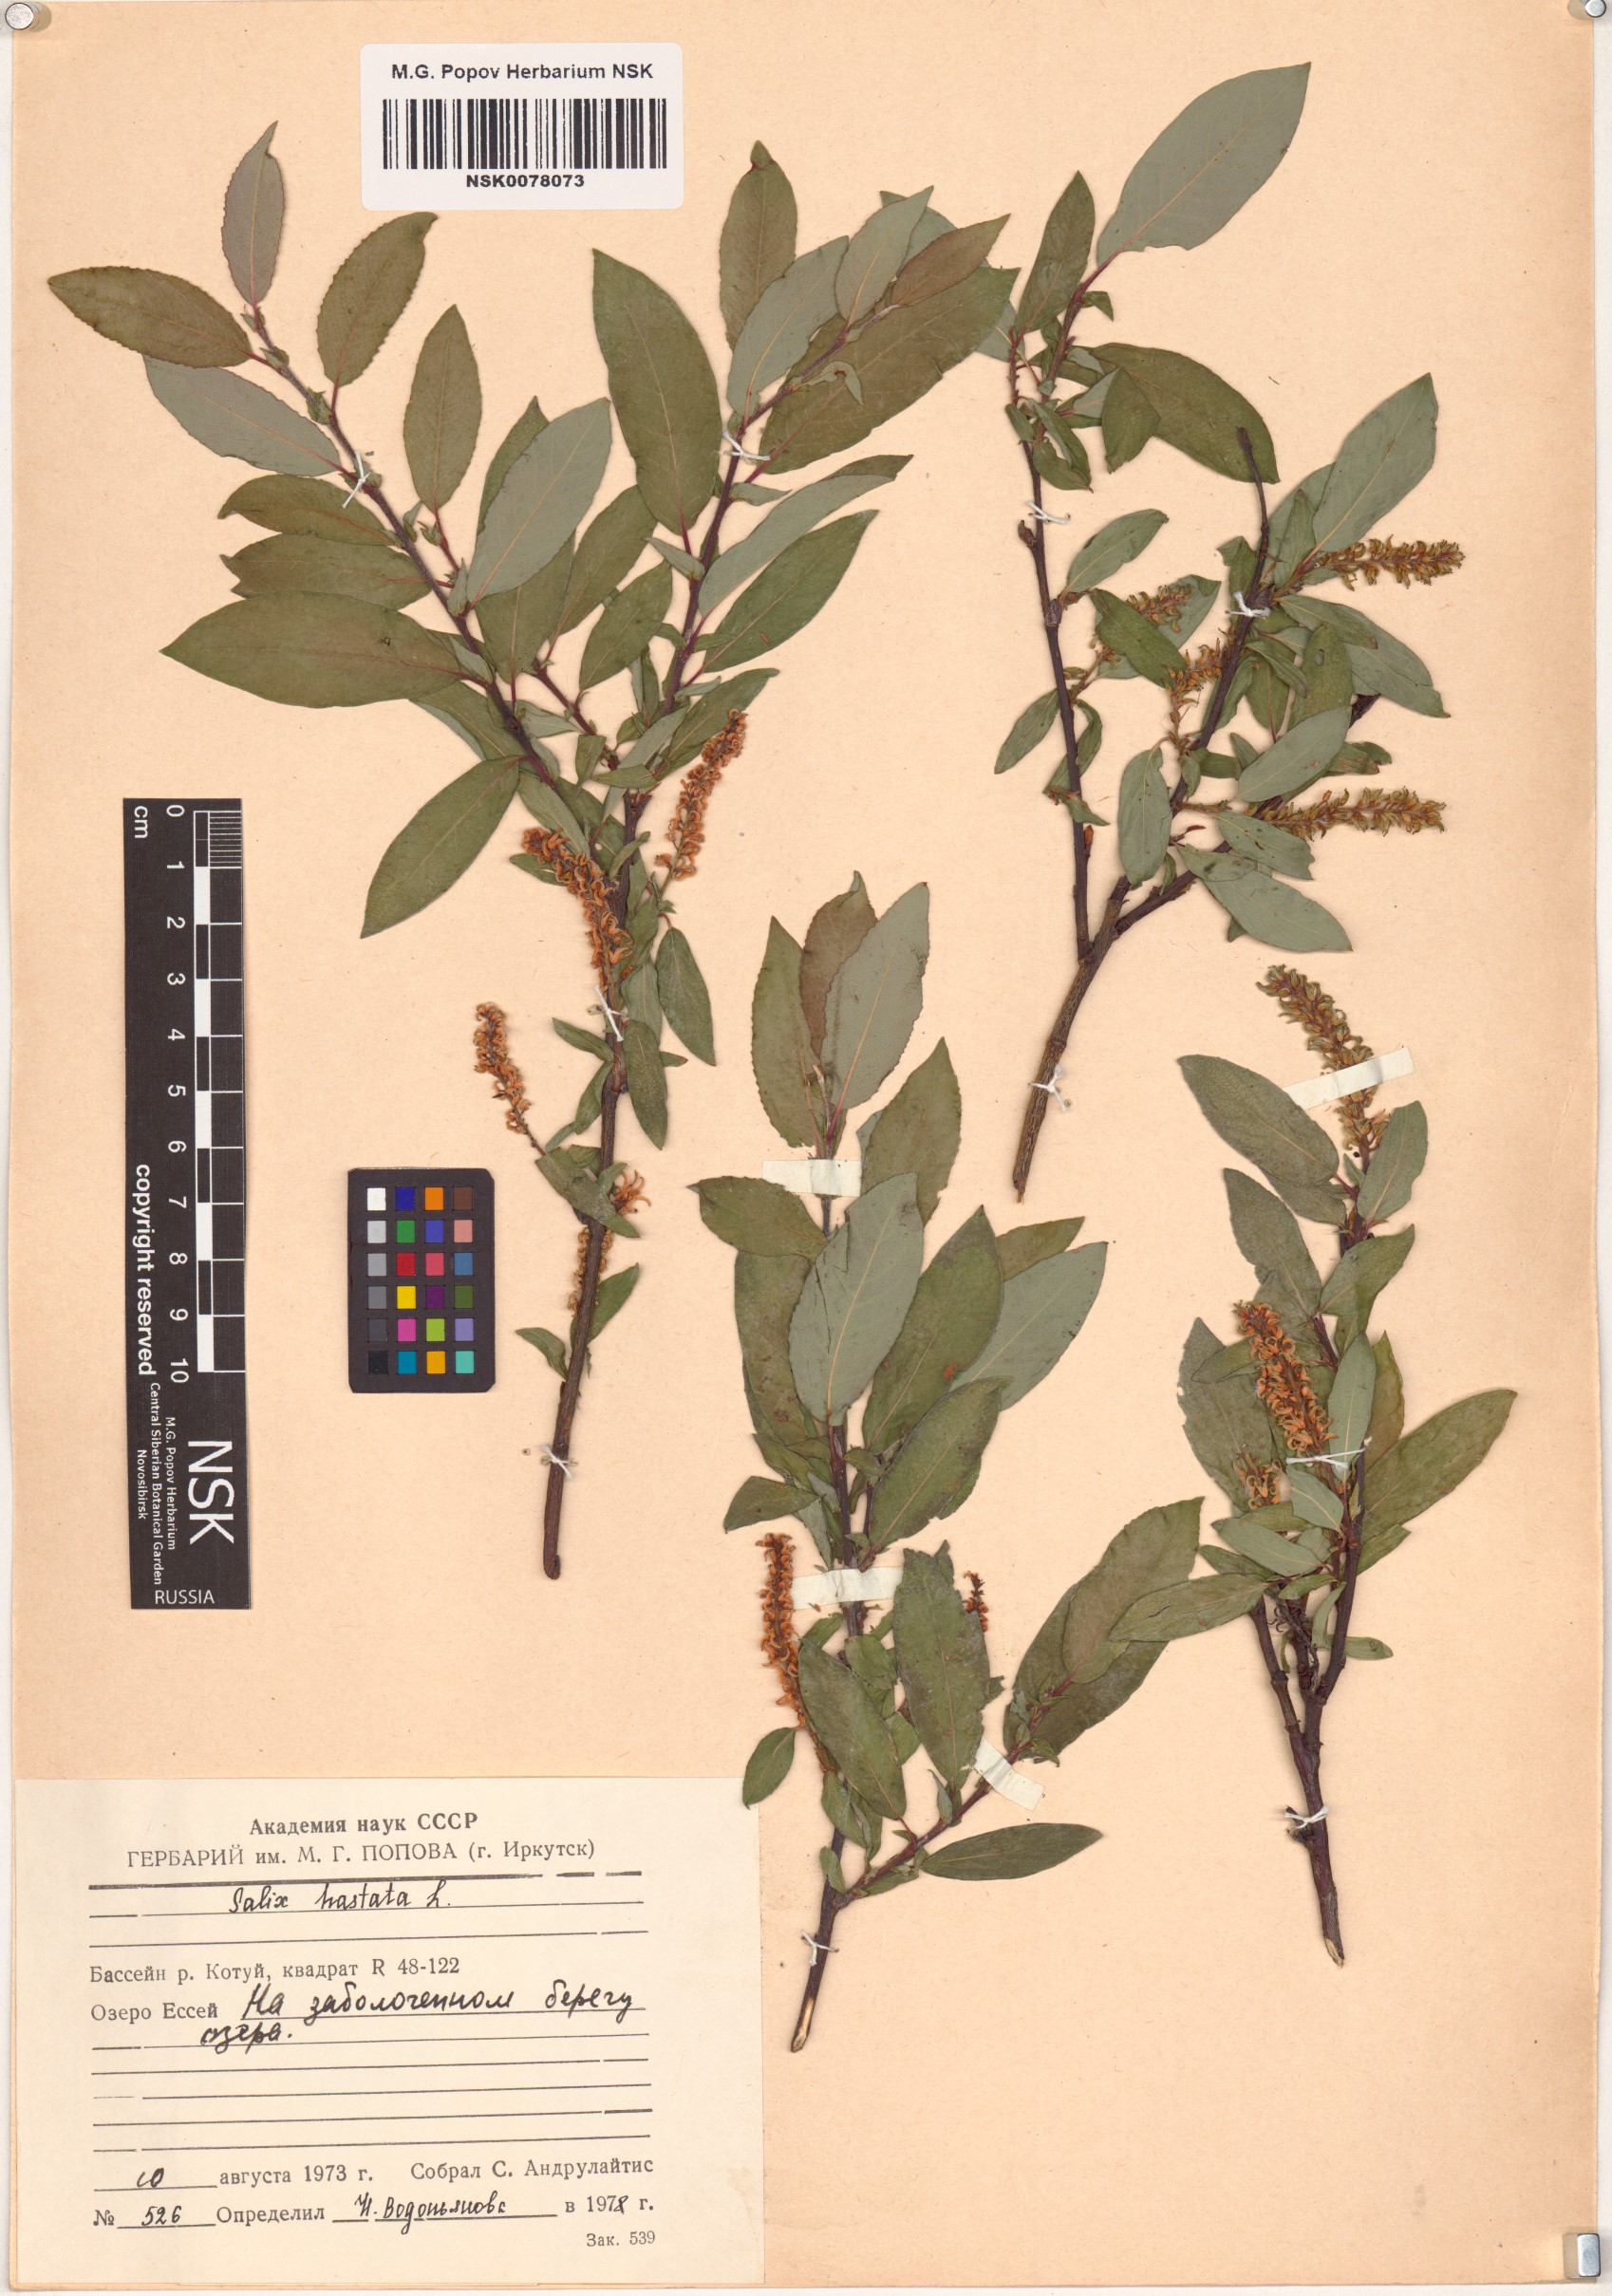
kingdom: Plantae
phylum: Tracheophyta
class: Magnoliopsida
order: Malpighiales
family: Salicaceae
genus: Salix
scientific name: Salix hastata
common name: Halberd willow
